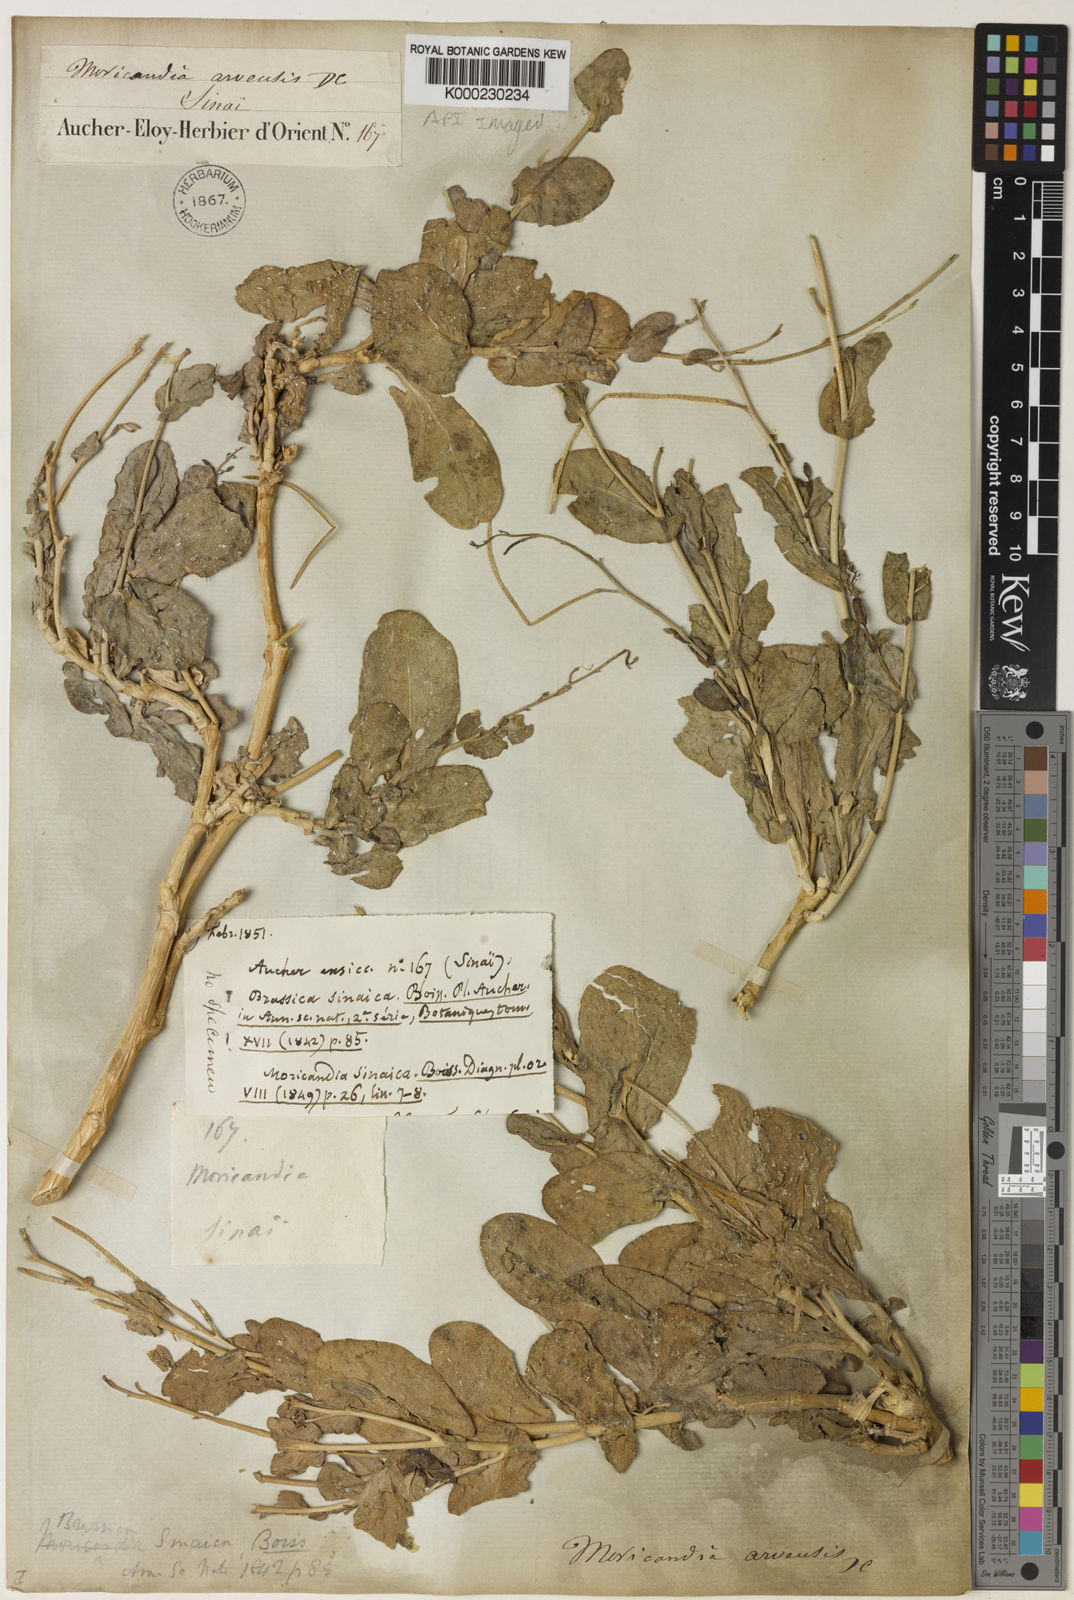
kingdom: Plantae
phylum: Tracheophyta
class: Magnoliopsida
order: Brassicales
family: Brassicaceae
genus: Moricandia
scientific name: Moricandia sinaica
